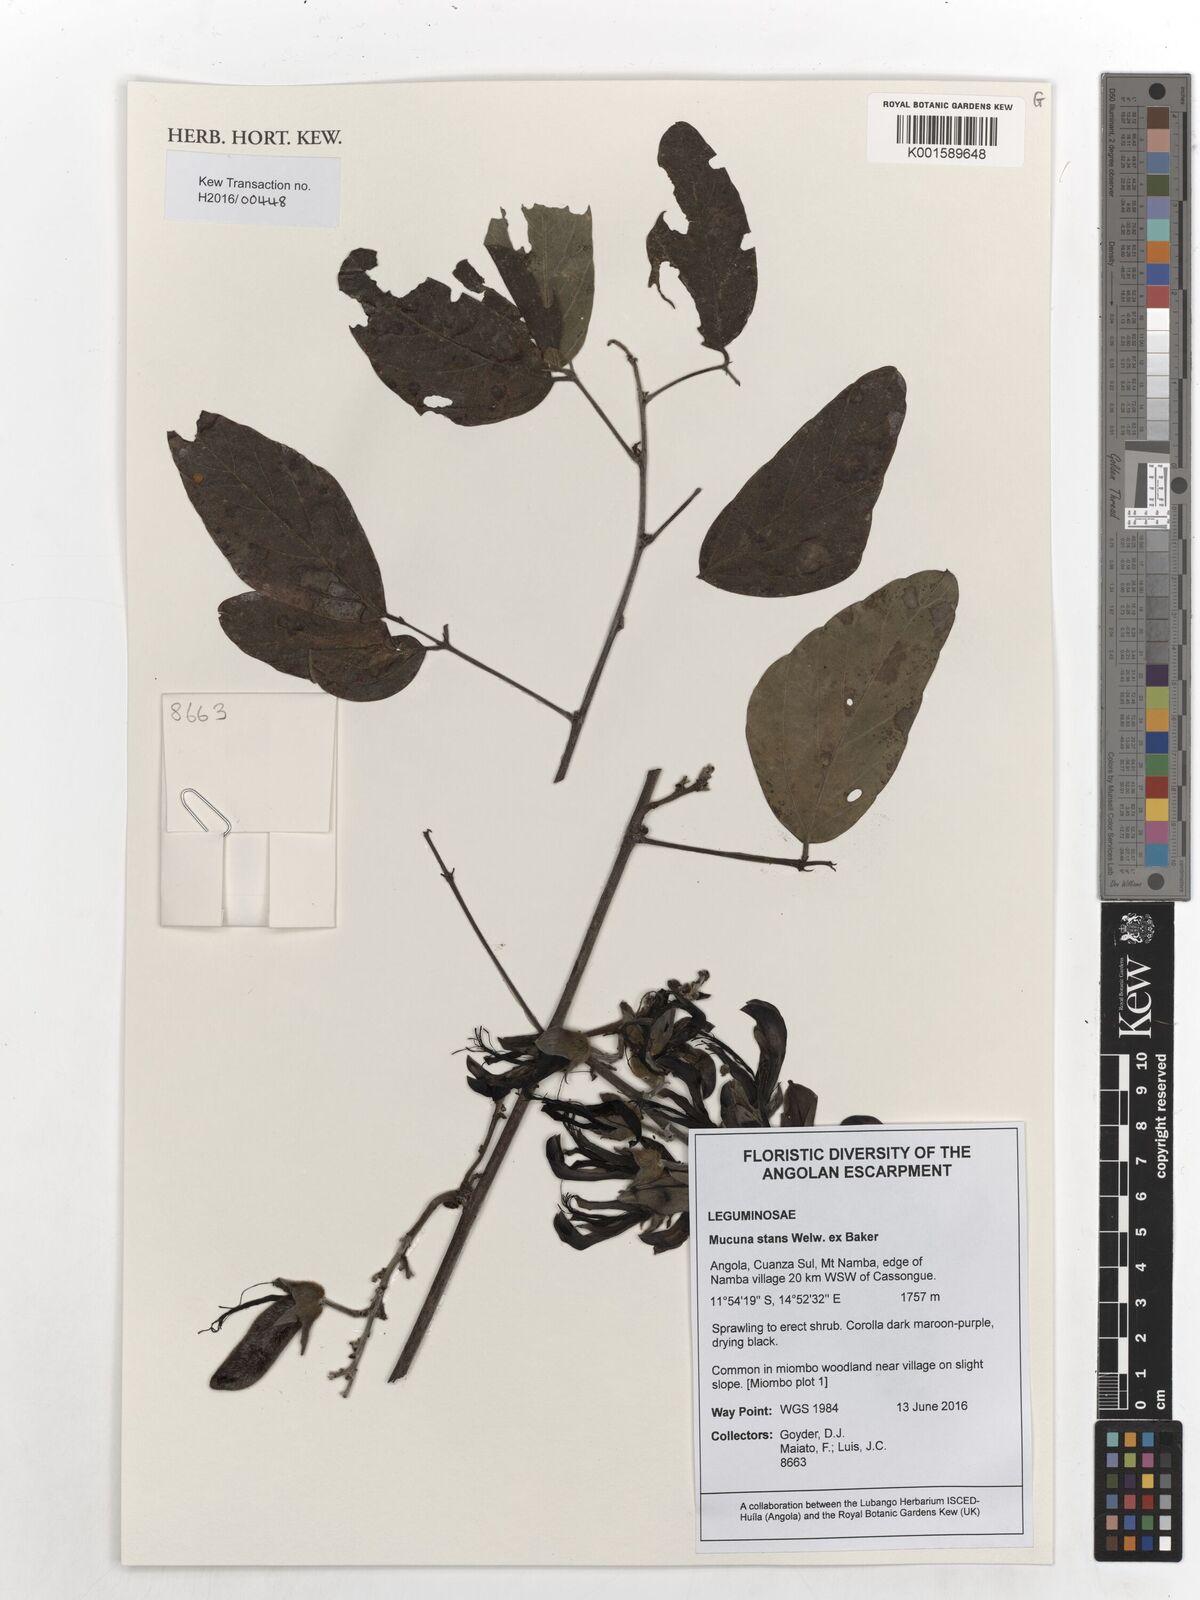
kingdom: Plantae
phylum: Tracheophyta
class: Magnoliopsida
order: Fabales
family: Fabaceae
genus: Mucuna
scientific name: Mucuna stans
